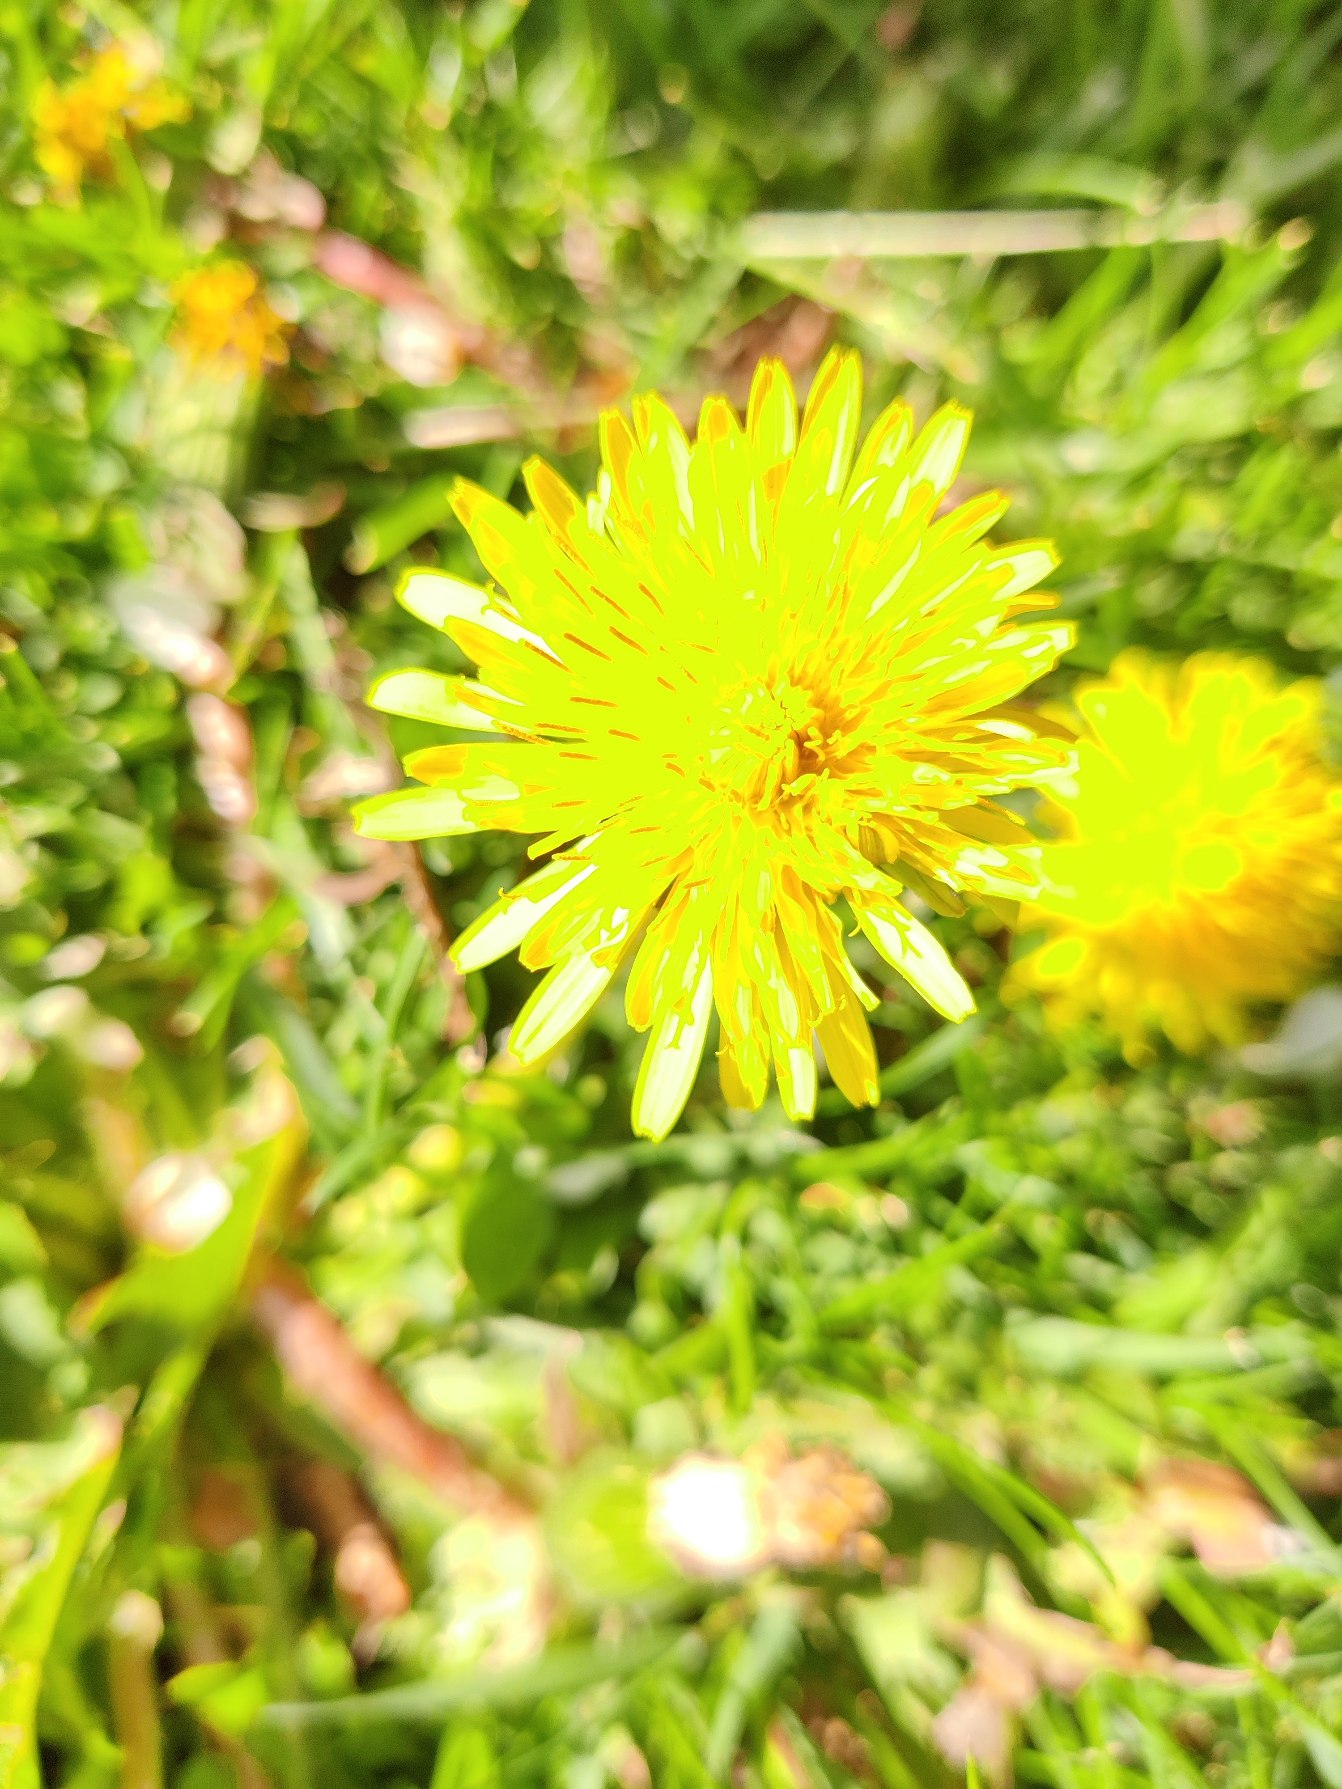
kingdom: Plantae
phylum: Tracheophyta
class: Magnoliopsida
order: Asterales
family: Asteraceae
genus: Taraxacum
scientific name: Taraxacum
